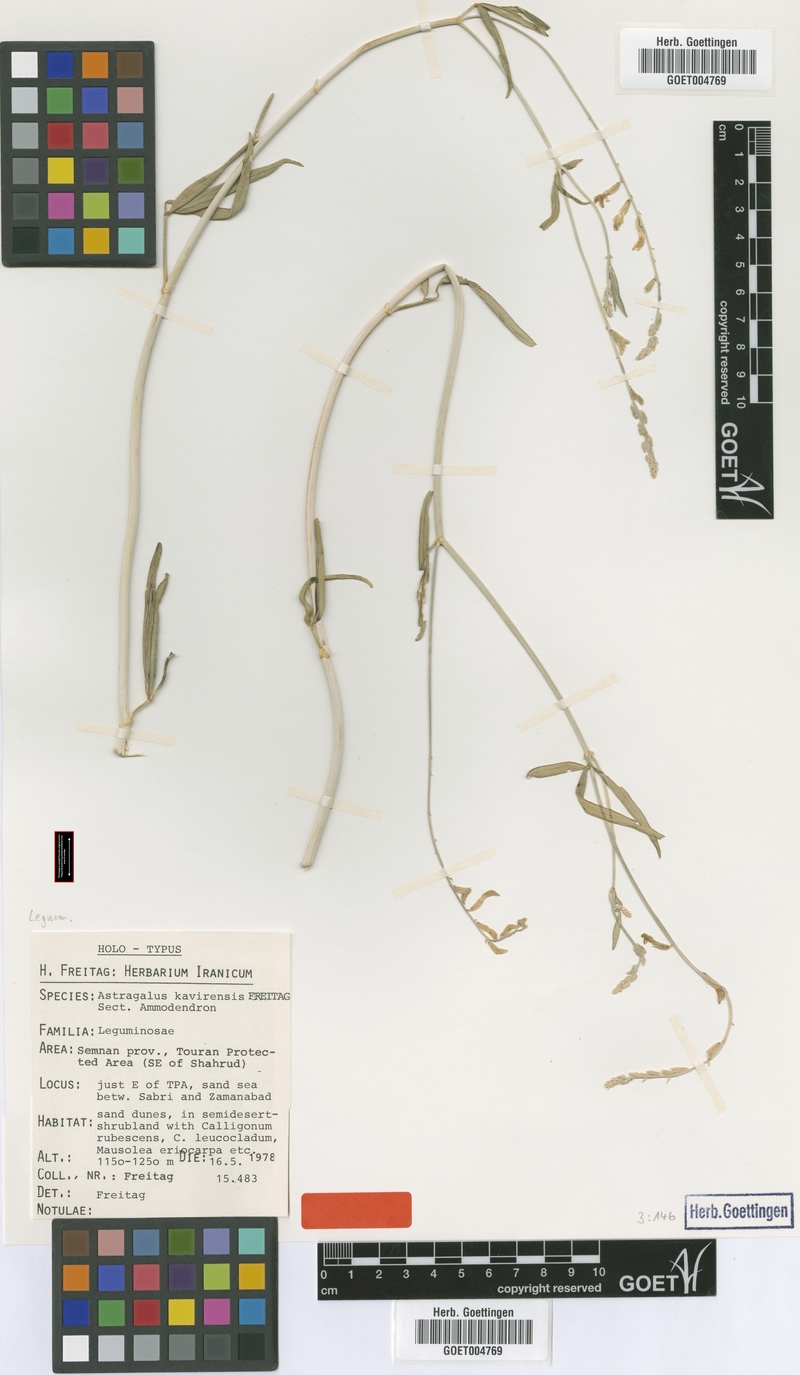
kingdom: Plantae
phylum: Tracheophyta
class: Magnoliopsida
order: Fabales
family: Fabaceae
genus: Astragalus
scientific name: Astragalus kavirensis
